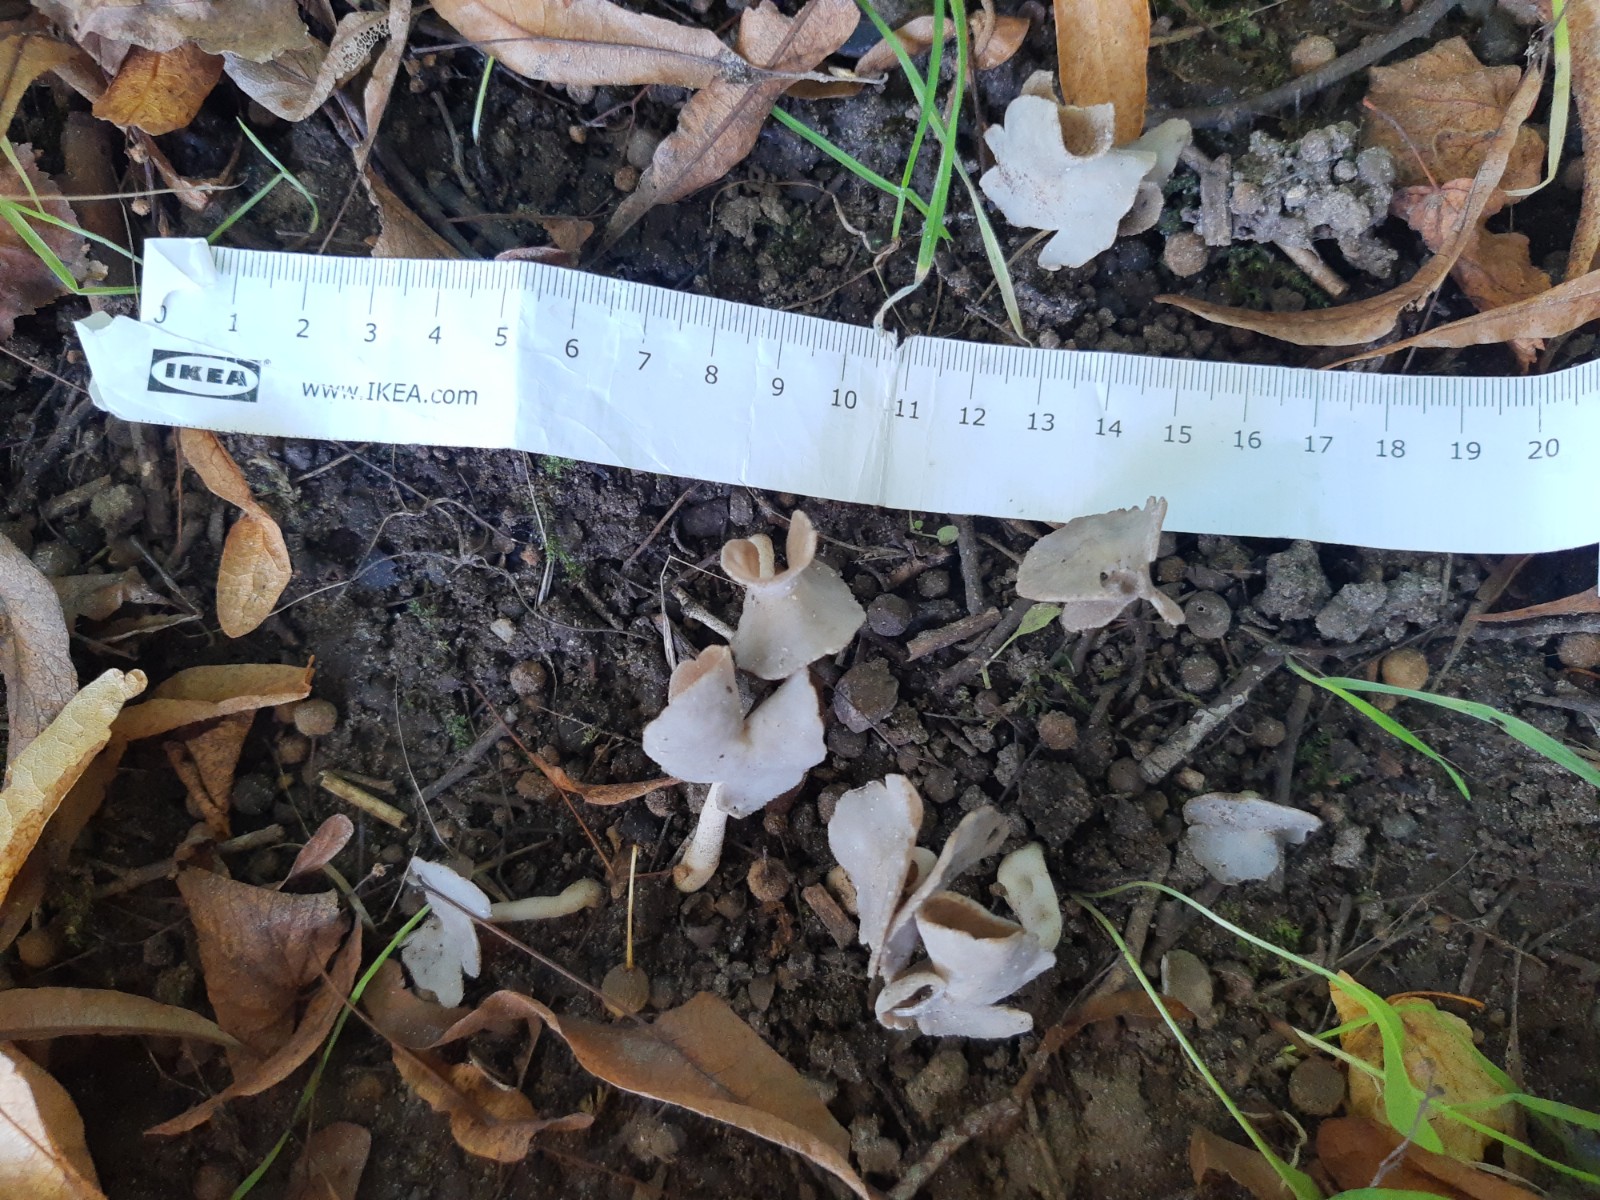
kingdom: Fungi
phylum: Ascomycota
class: Pezizomycetes
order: Pezizales
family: Helvellaceae
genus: Helvella
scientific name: Helvella
